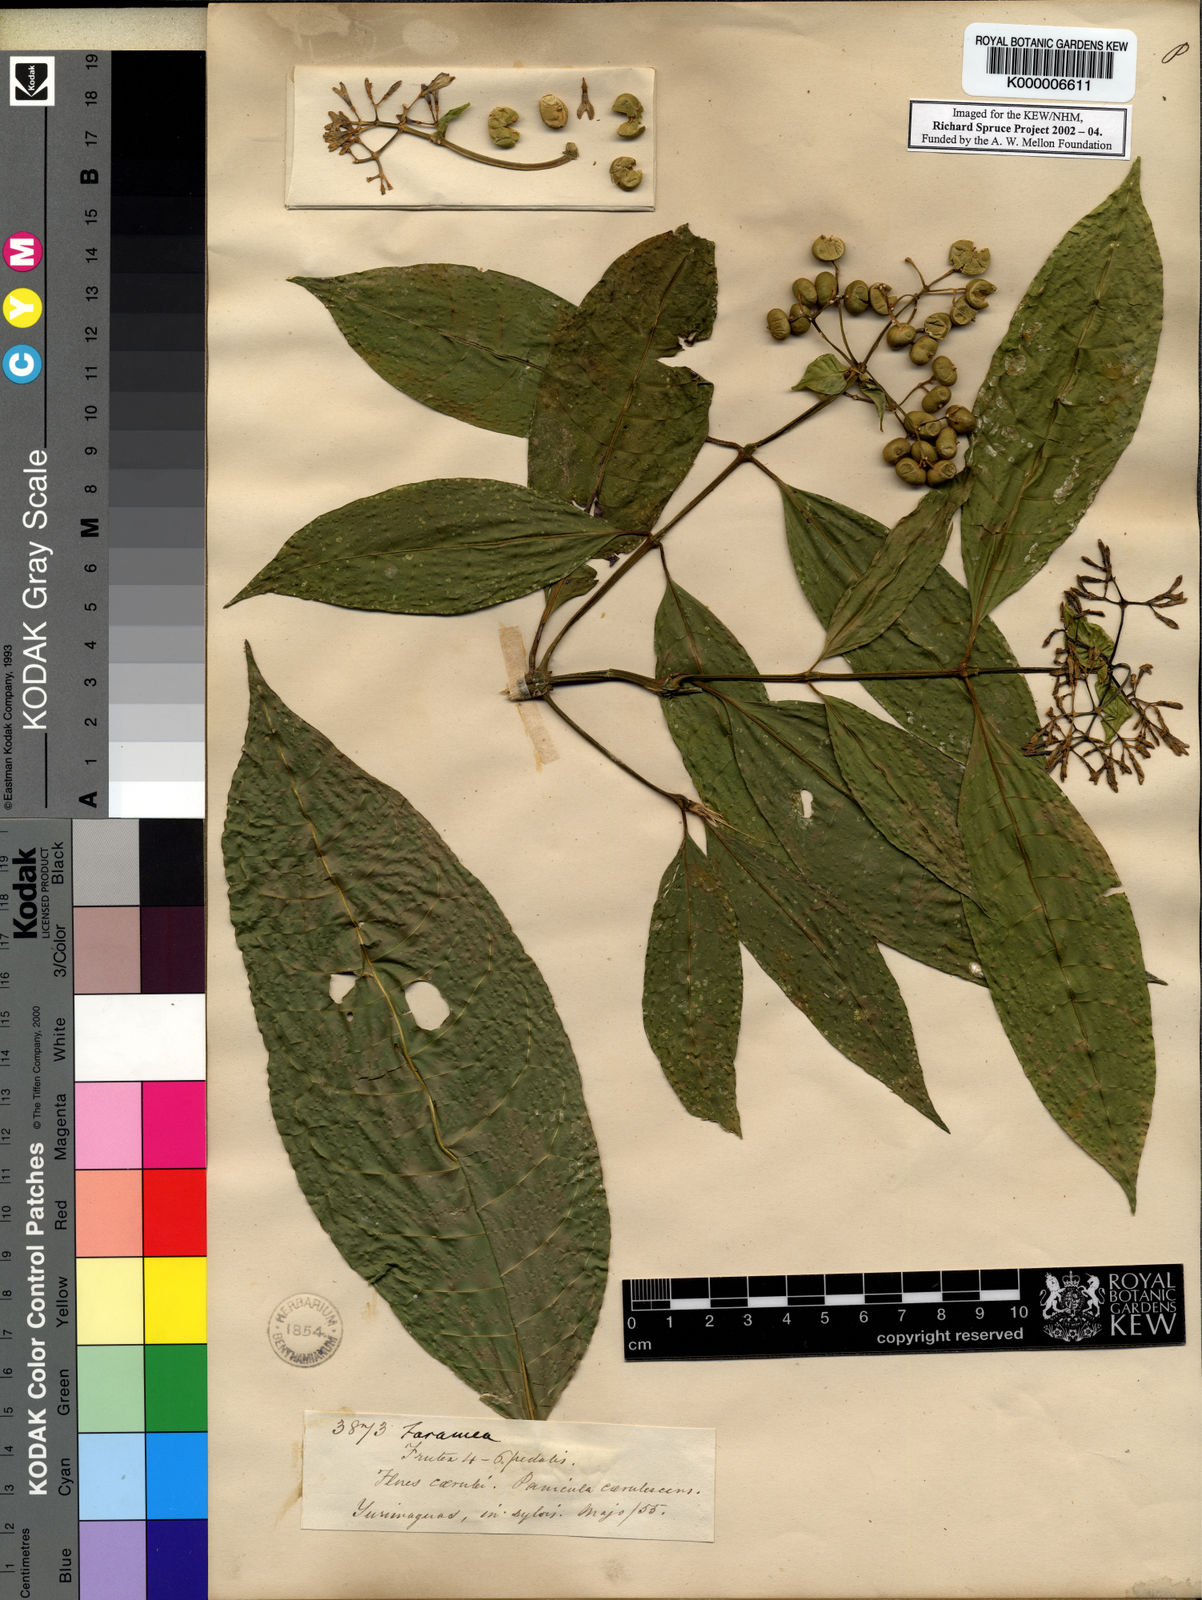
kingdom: Plantae
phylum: Tracheophyta
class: Magnoliopsida
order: Gentianales
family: Rubiaceae
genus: Faramea
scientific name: Faramea multiflora
